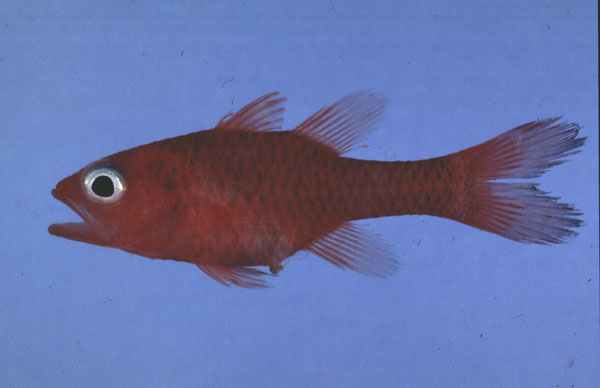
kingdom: Animalia
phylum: Chordata
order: Perciformes
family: Apogonidae
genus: Apogon
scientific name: Apogon coccineus
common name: Ruby cardinalfish
